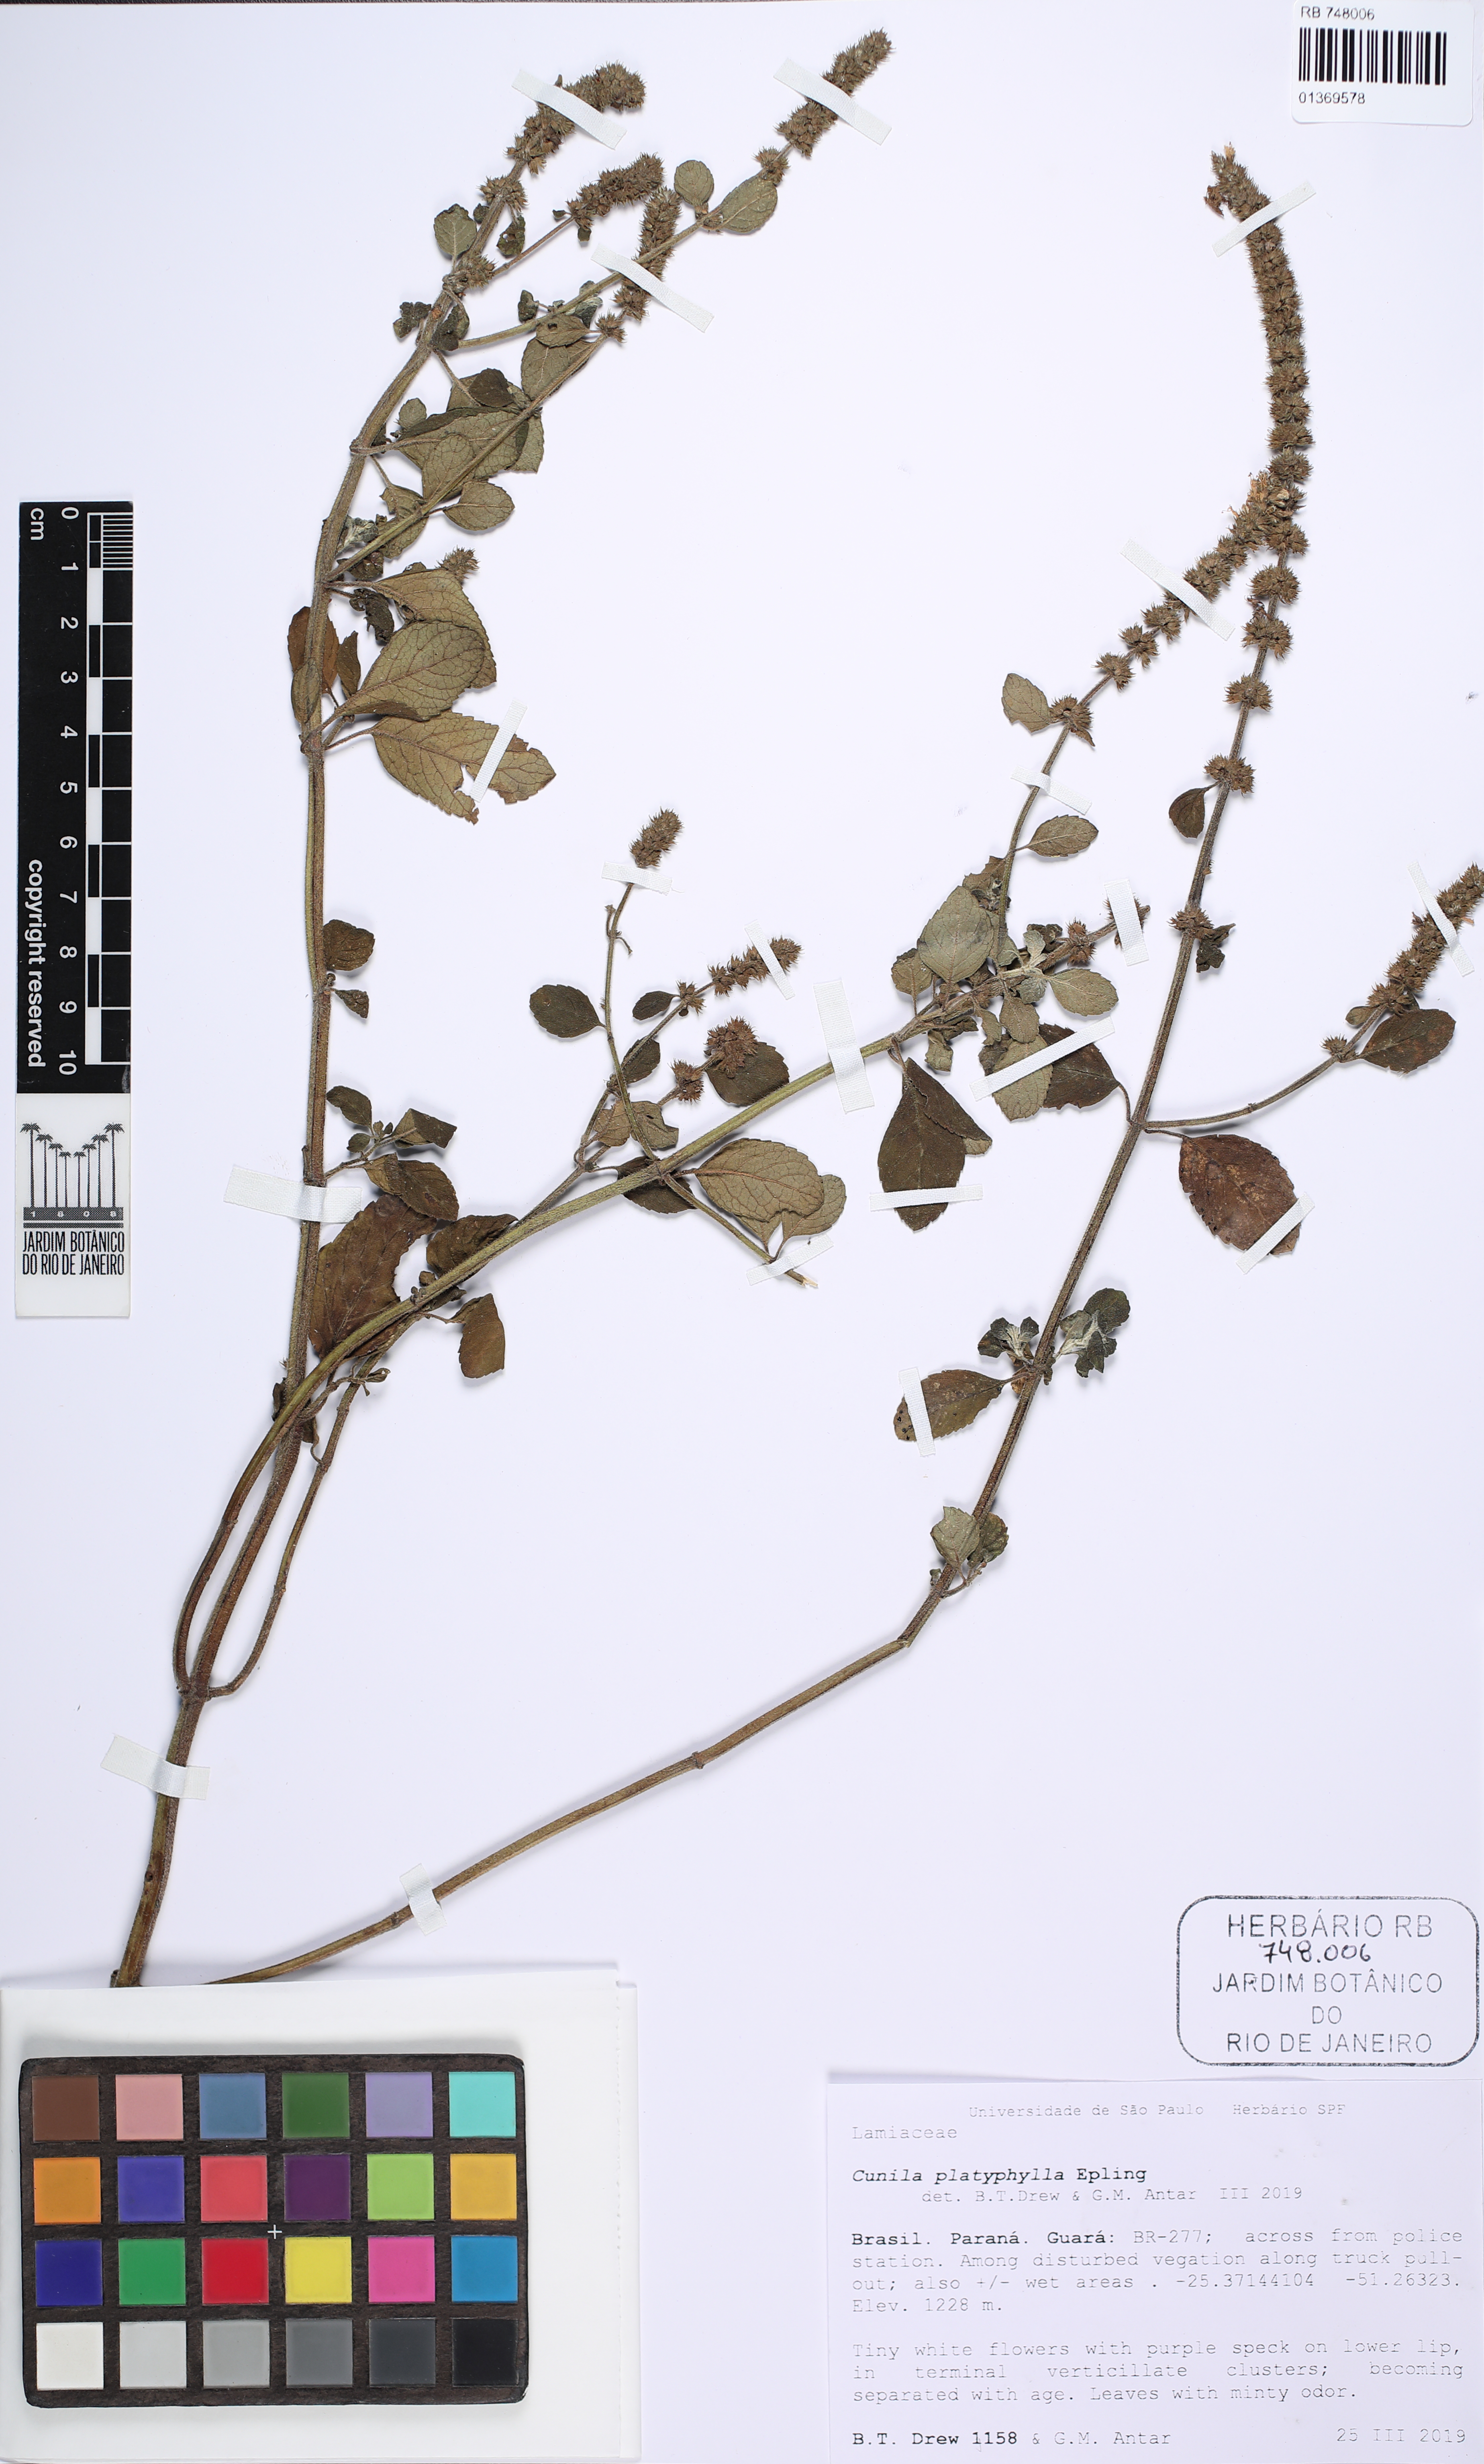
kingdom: Plantae
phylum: Tracheophyta
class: Magnoliopsida
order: Fabales
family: Fabaceae
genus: Machaerium
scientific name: Machaerium nigrum
